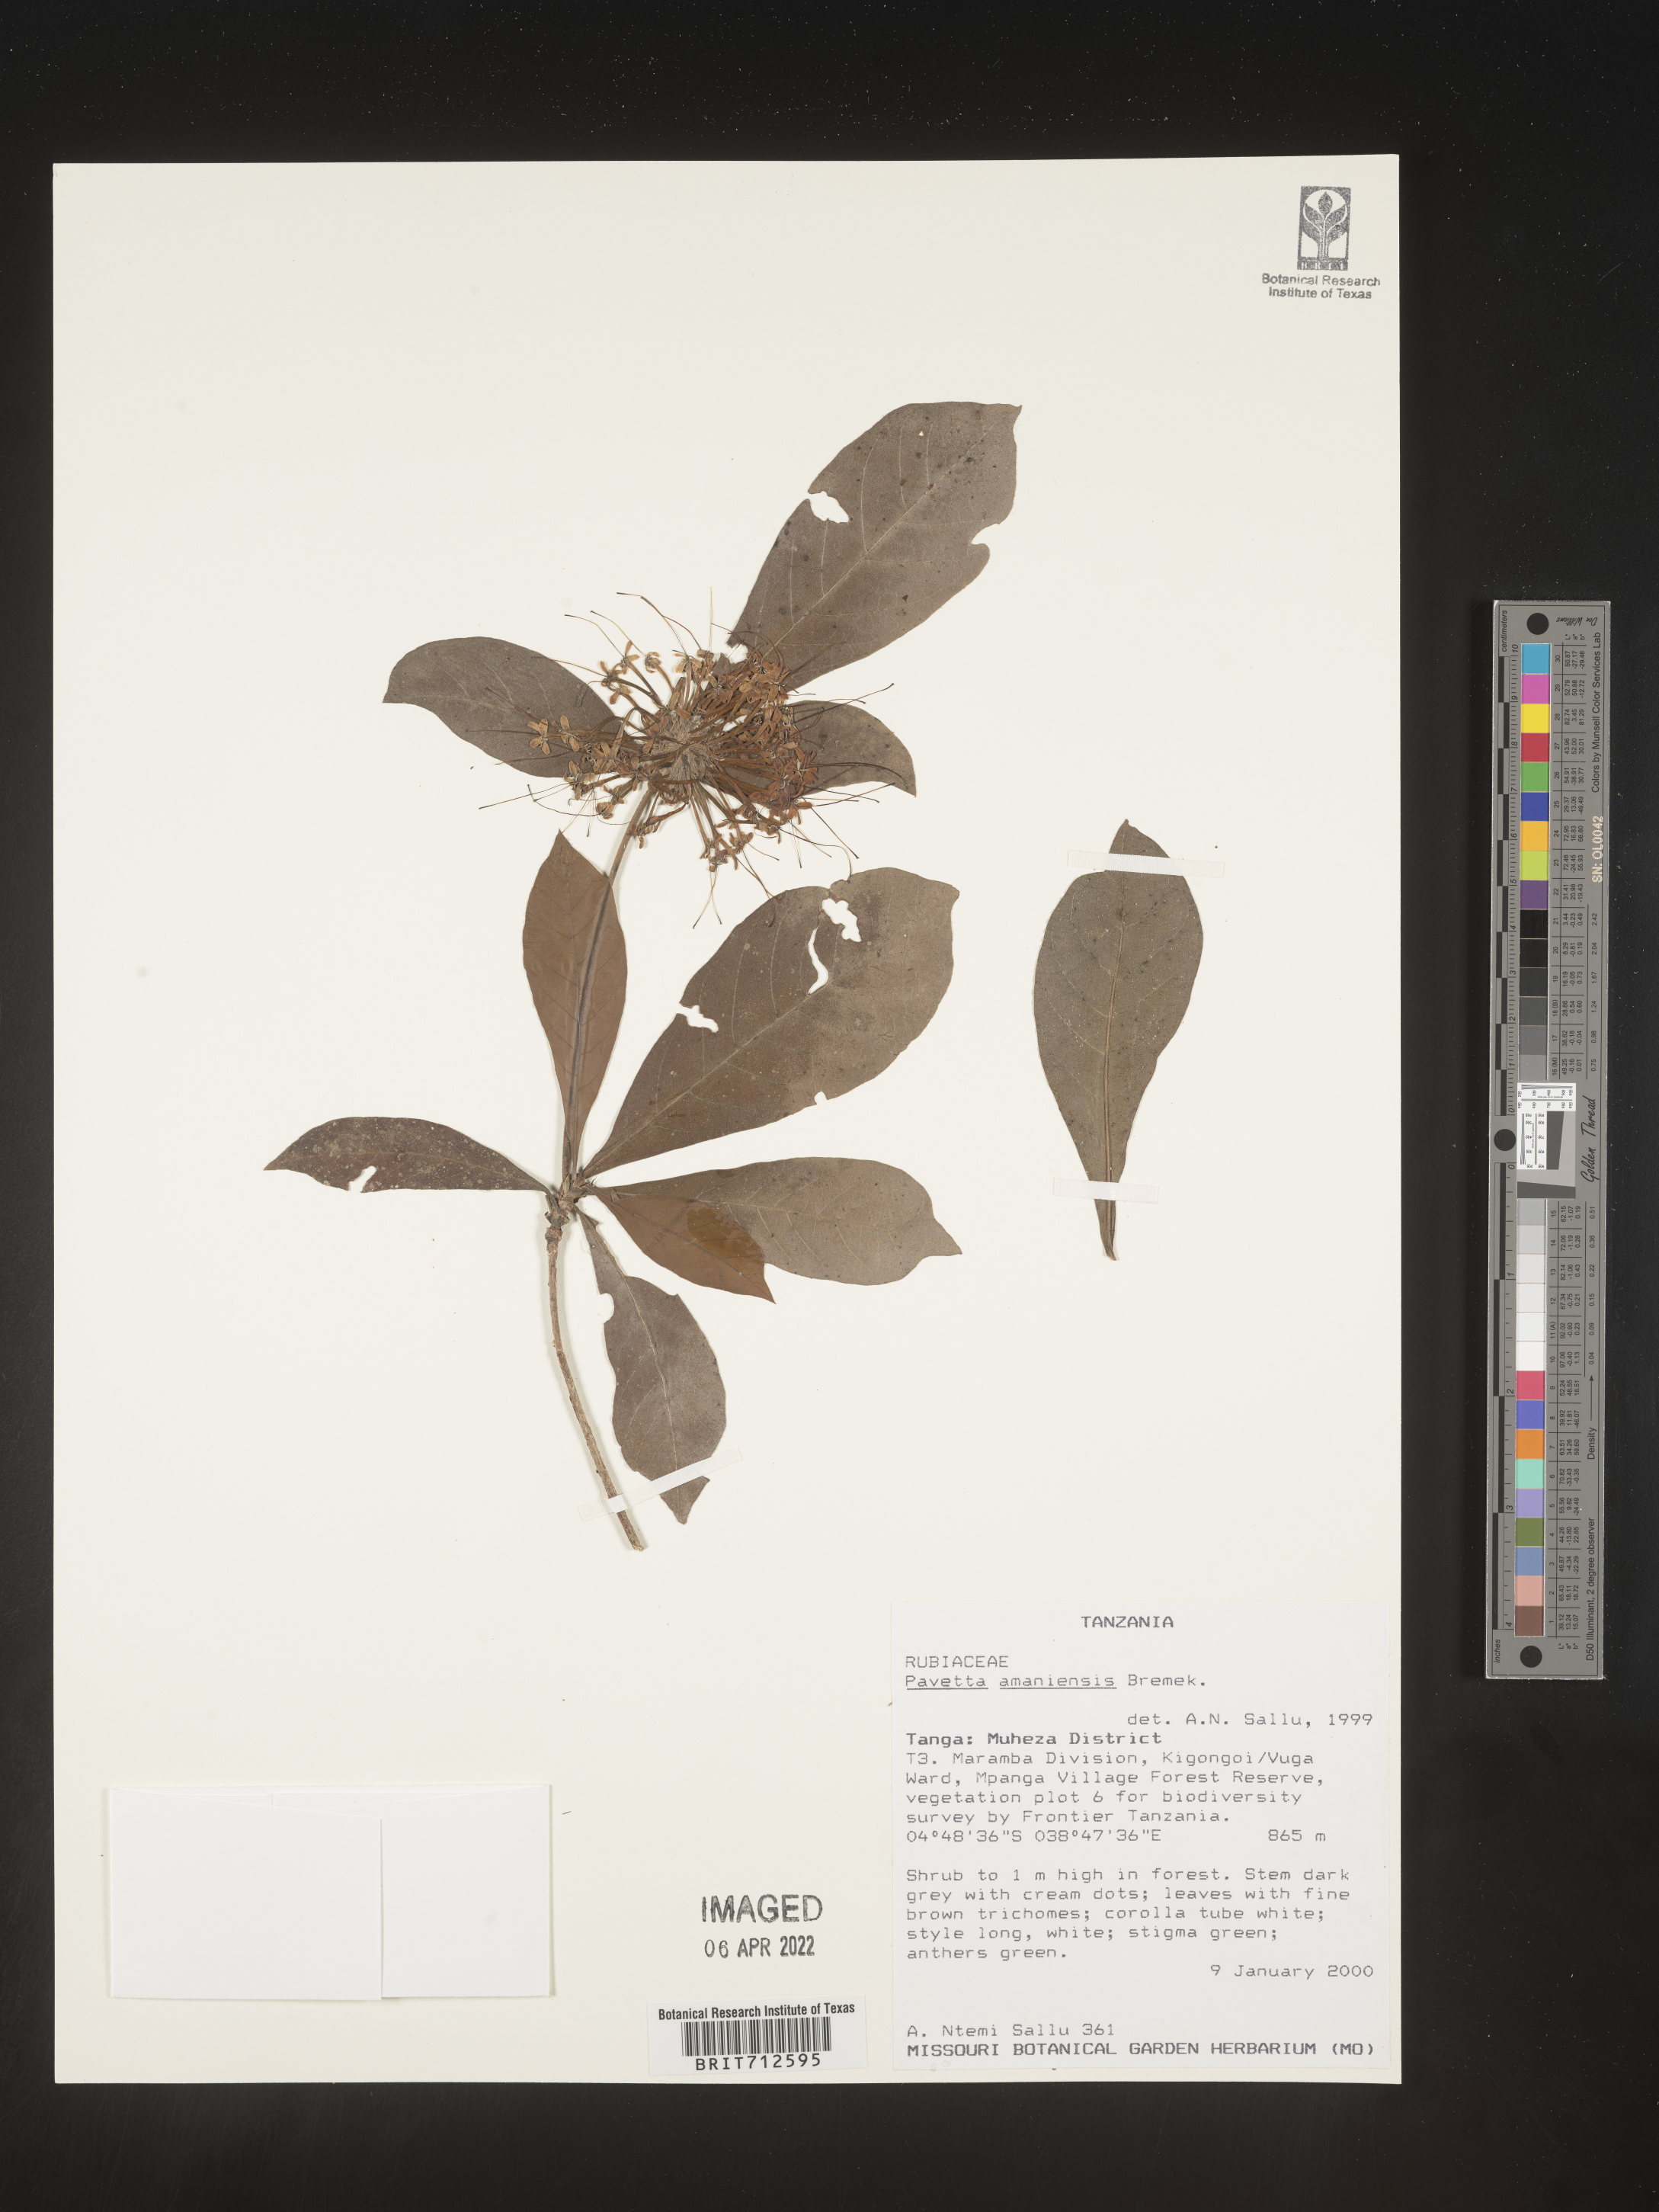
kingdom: Plantae
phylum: Tracheophyta
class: Magnoliopsida
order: Gentianales
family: Rubiaceae
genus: Pavetta
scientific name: Pavetta
